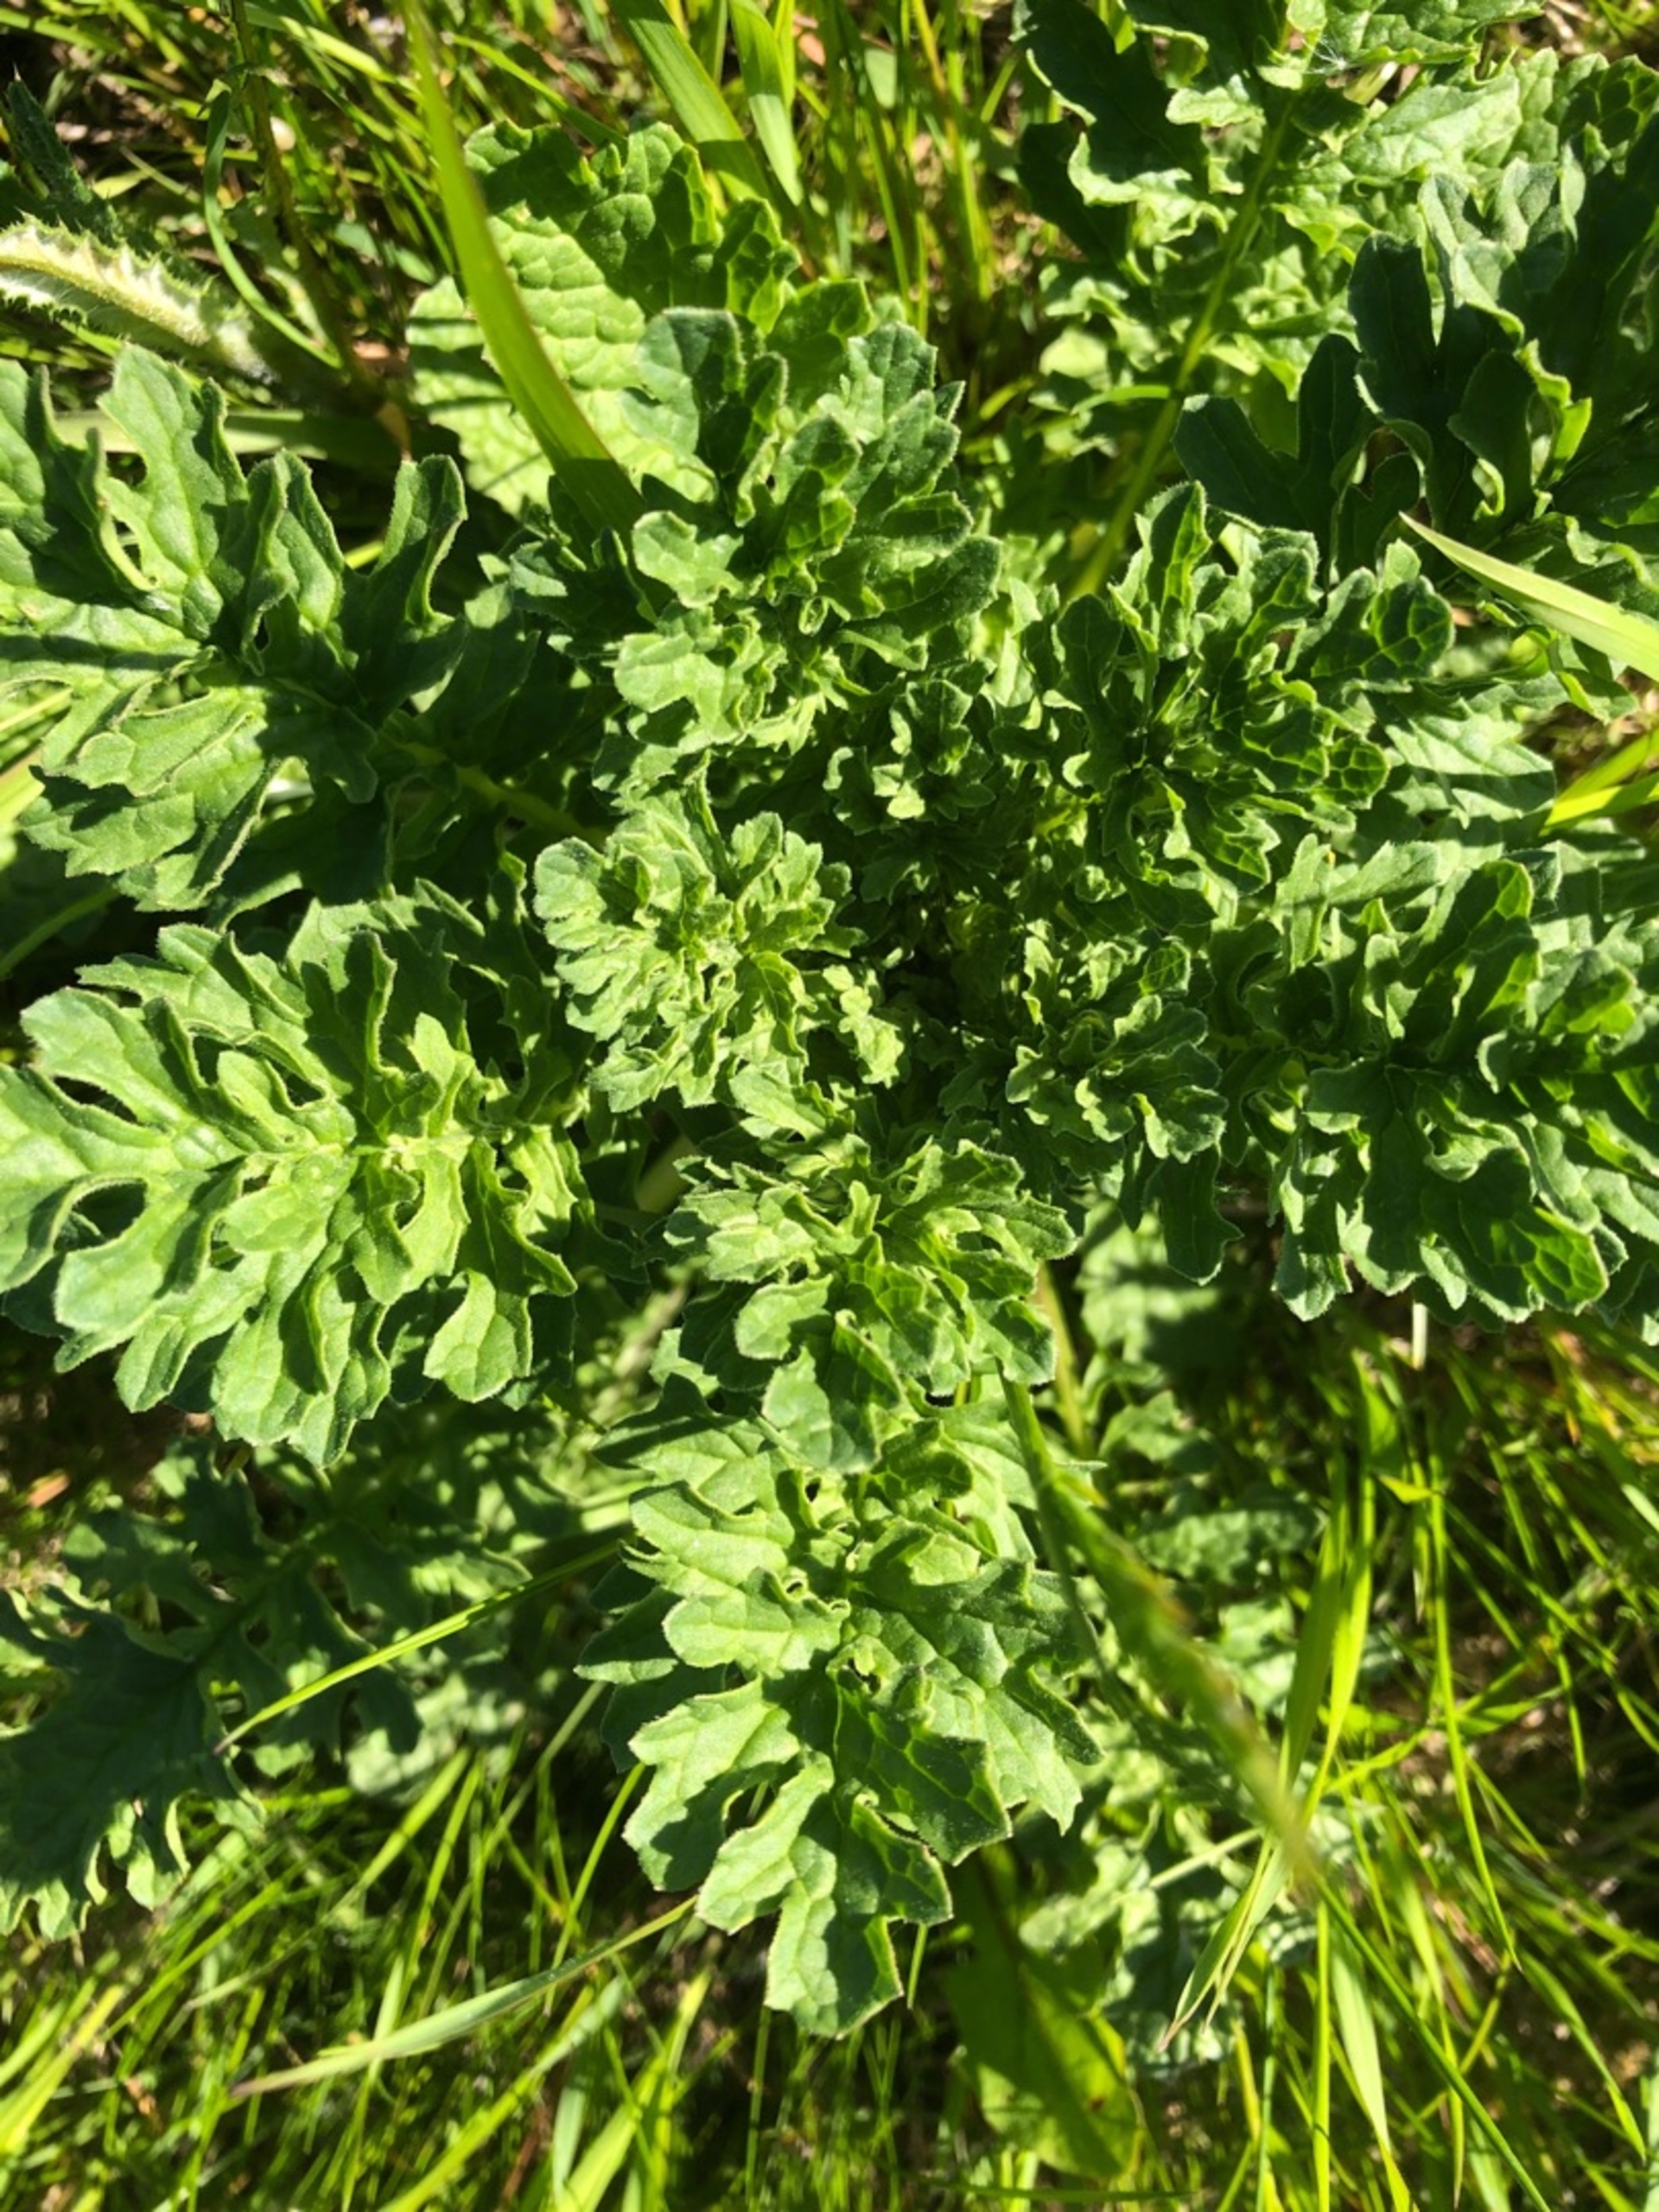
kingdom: Plantae
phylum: Tracheophyta
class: Magnoliopsida
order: Asterales
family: Asteraceae
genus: Jacobaea
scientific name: Jacobaea vulgaris
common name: Eng-brandbæger
